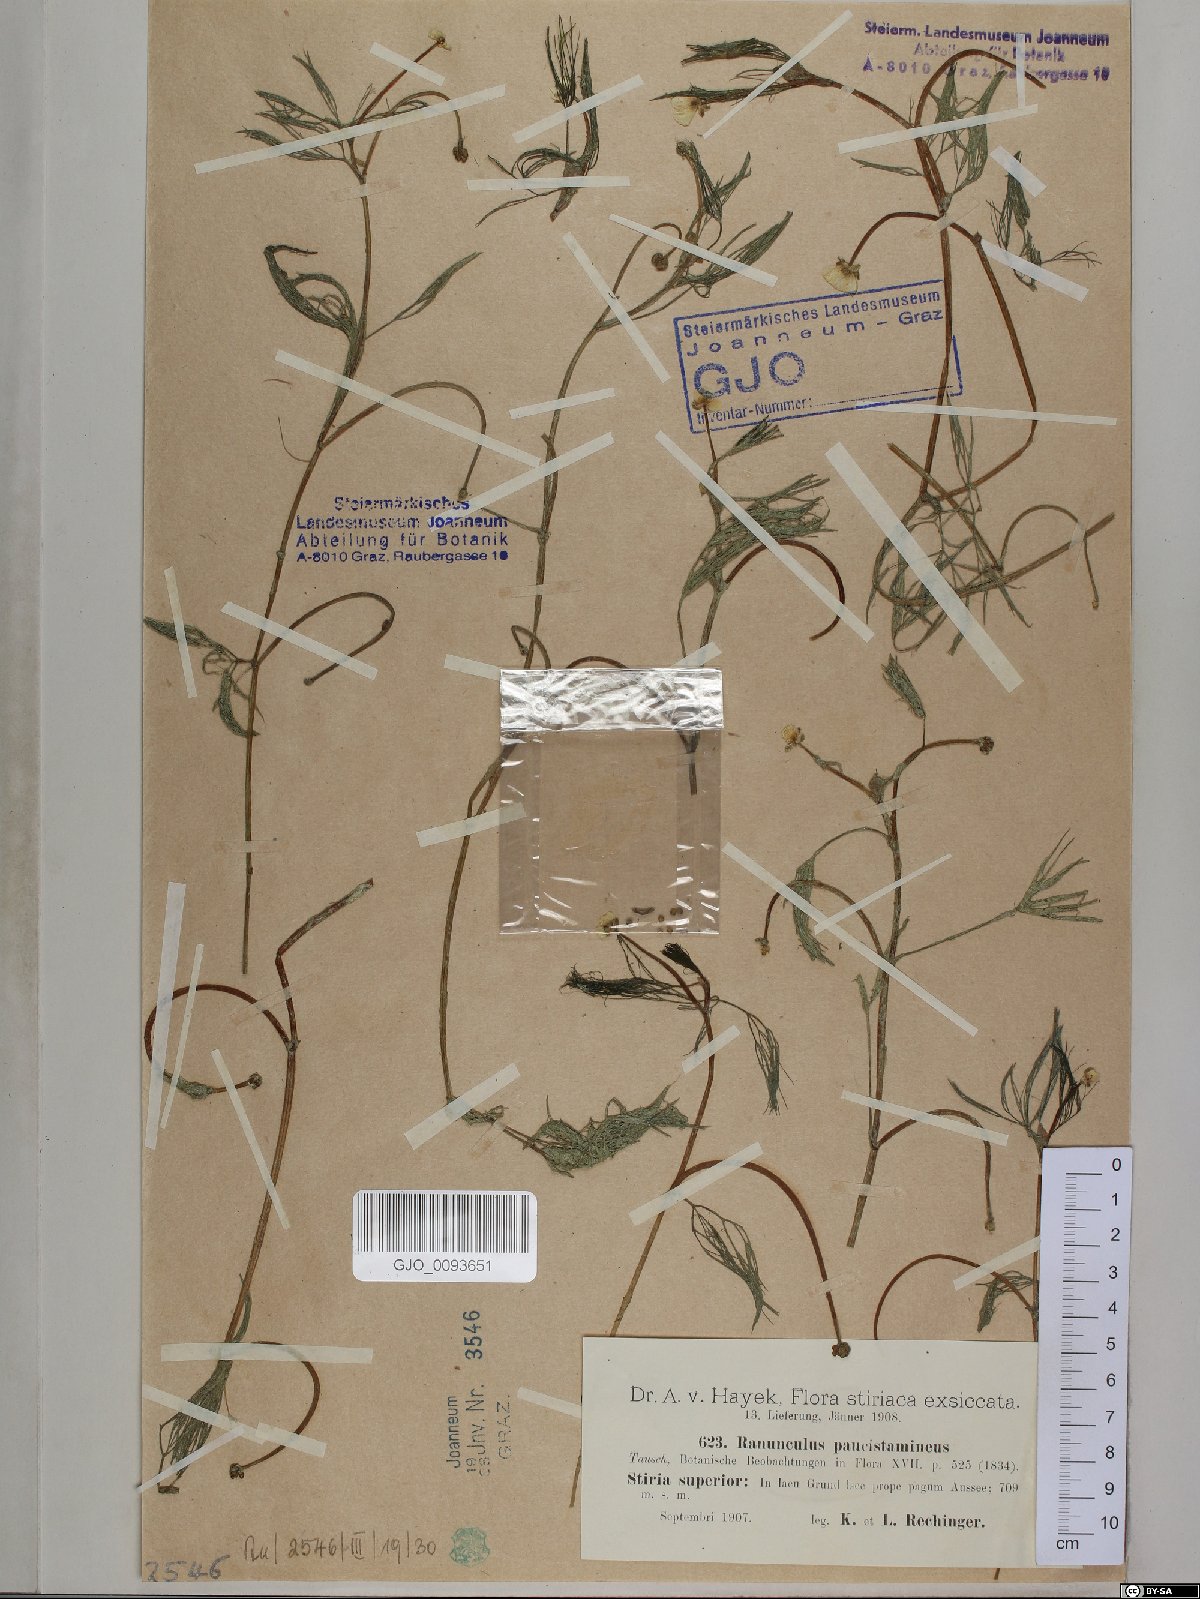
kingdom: Plantae
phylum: Tracheophyta
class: Magnoliopsida
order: Ranunculales
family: Ranunculaceae
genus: Ranunculus
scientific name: Ranunculus
